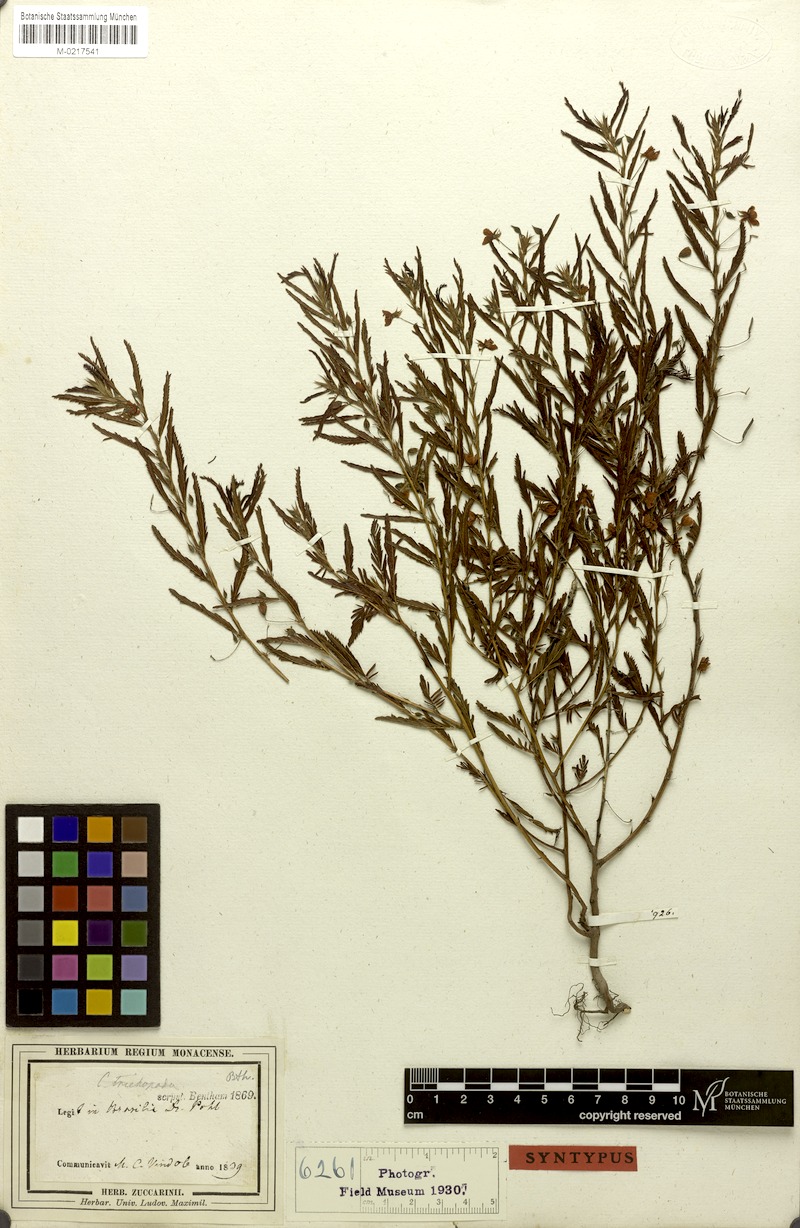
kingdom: Plantae
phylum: Tracheophyta
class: Magnoliopsida
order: Fabales
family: Fabaceae
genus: Chamaecrista
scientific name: Chamaecrista trichopoda
